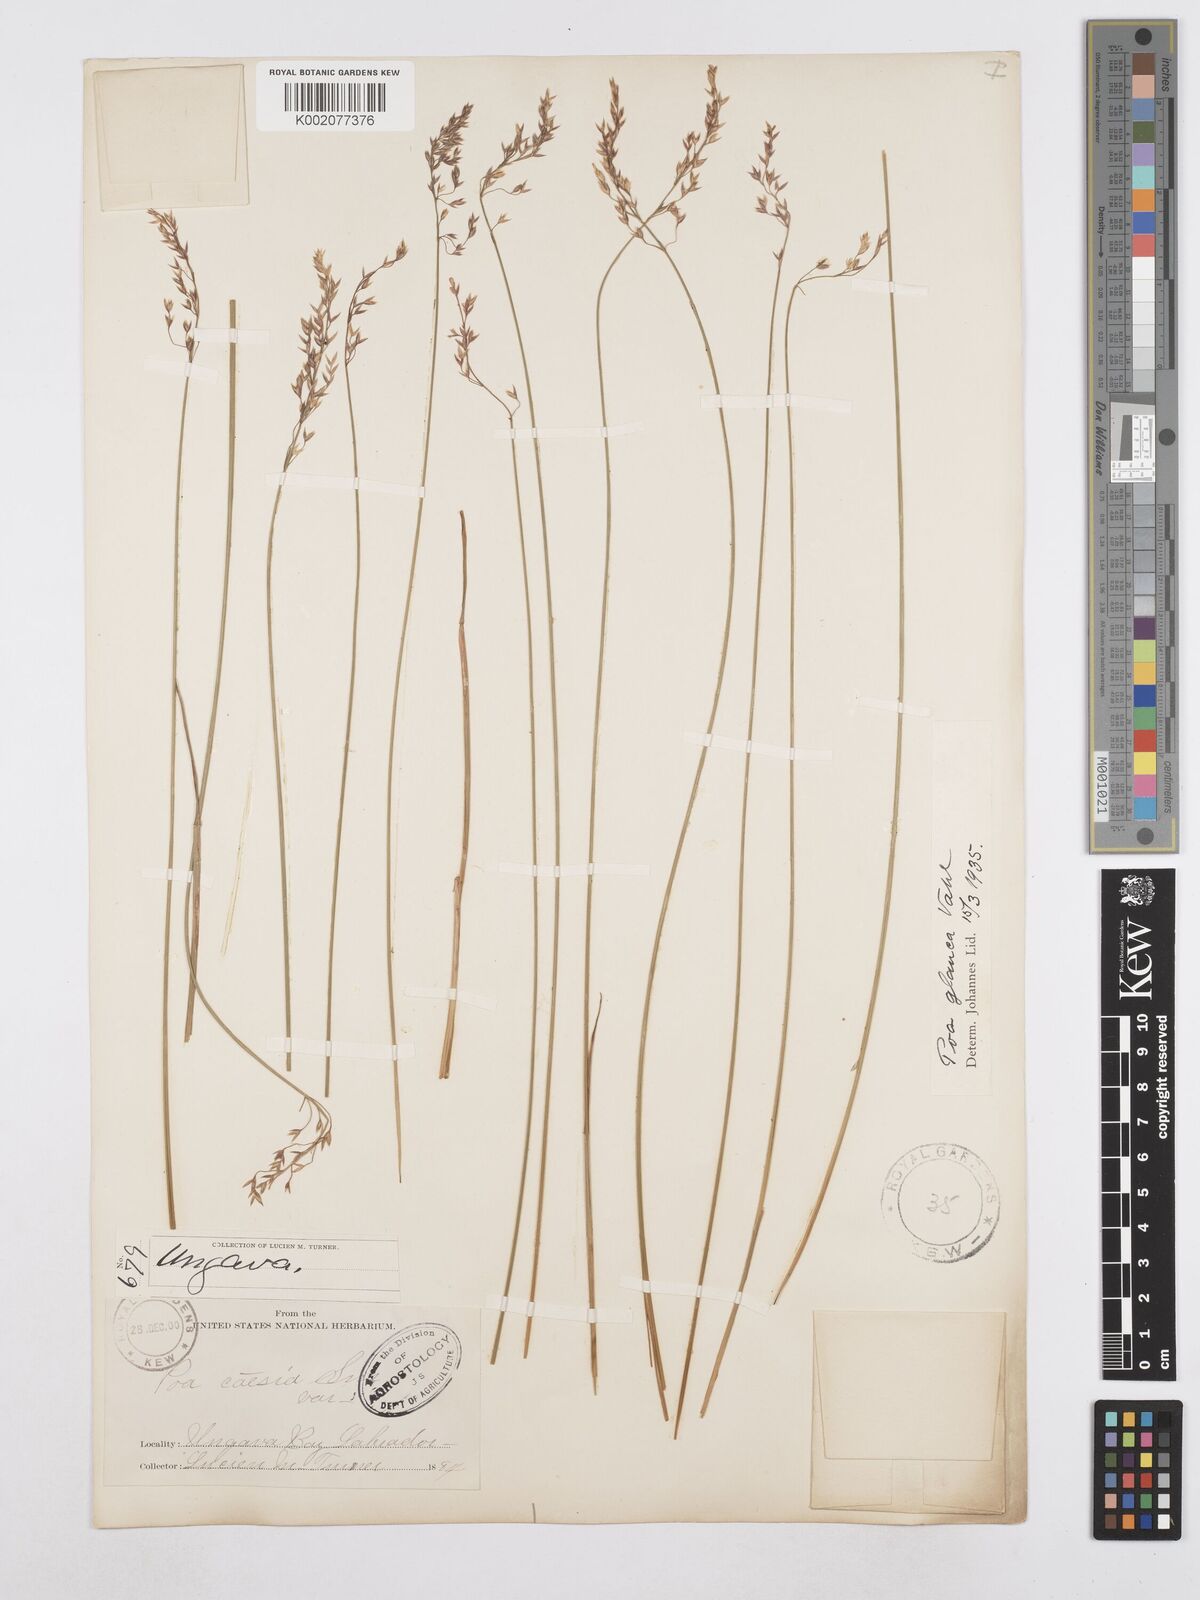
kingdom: Plantae
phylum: Tracheophyta
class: Liliopsida
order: Poales
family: Poaceae
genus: Poa
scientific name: Poa glauca
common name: Glaucous bluegrass
